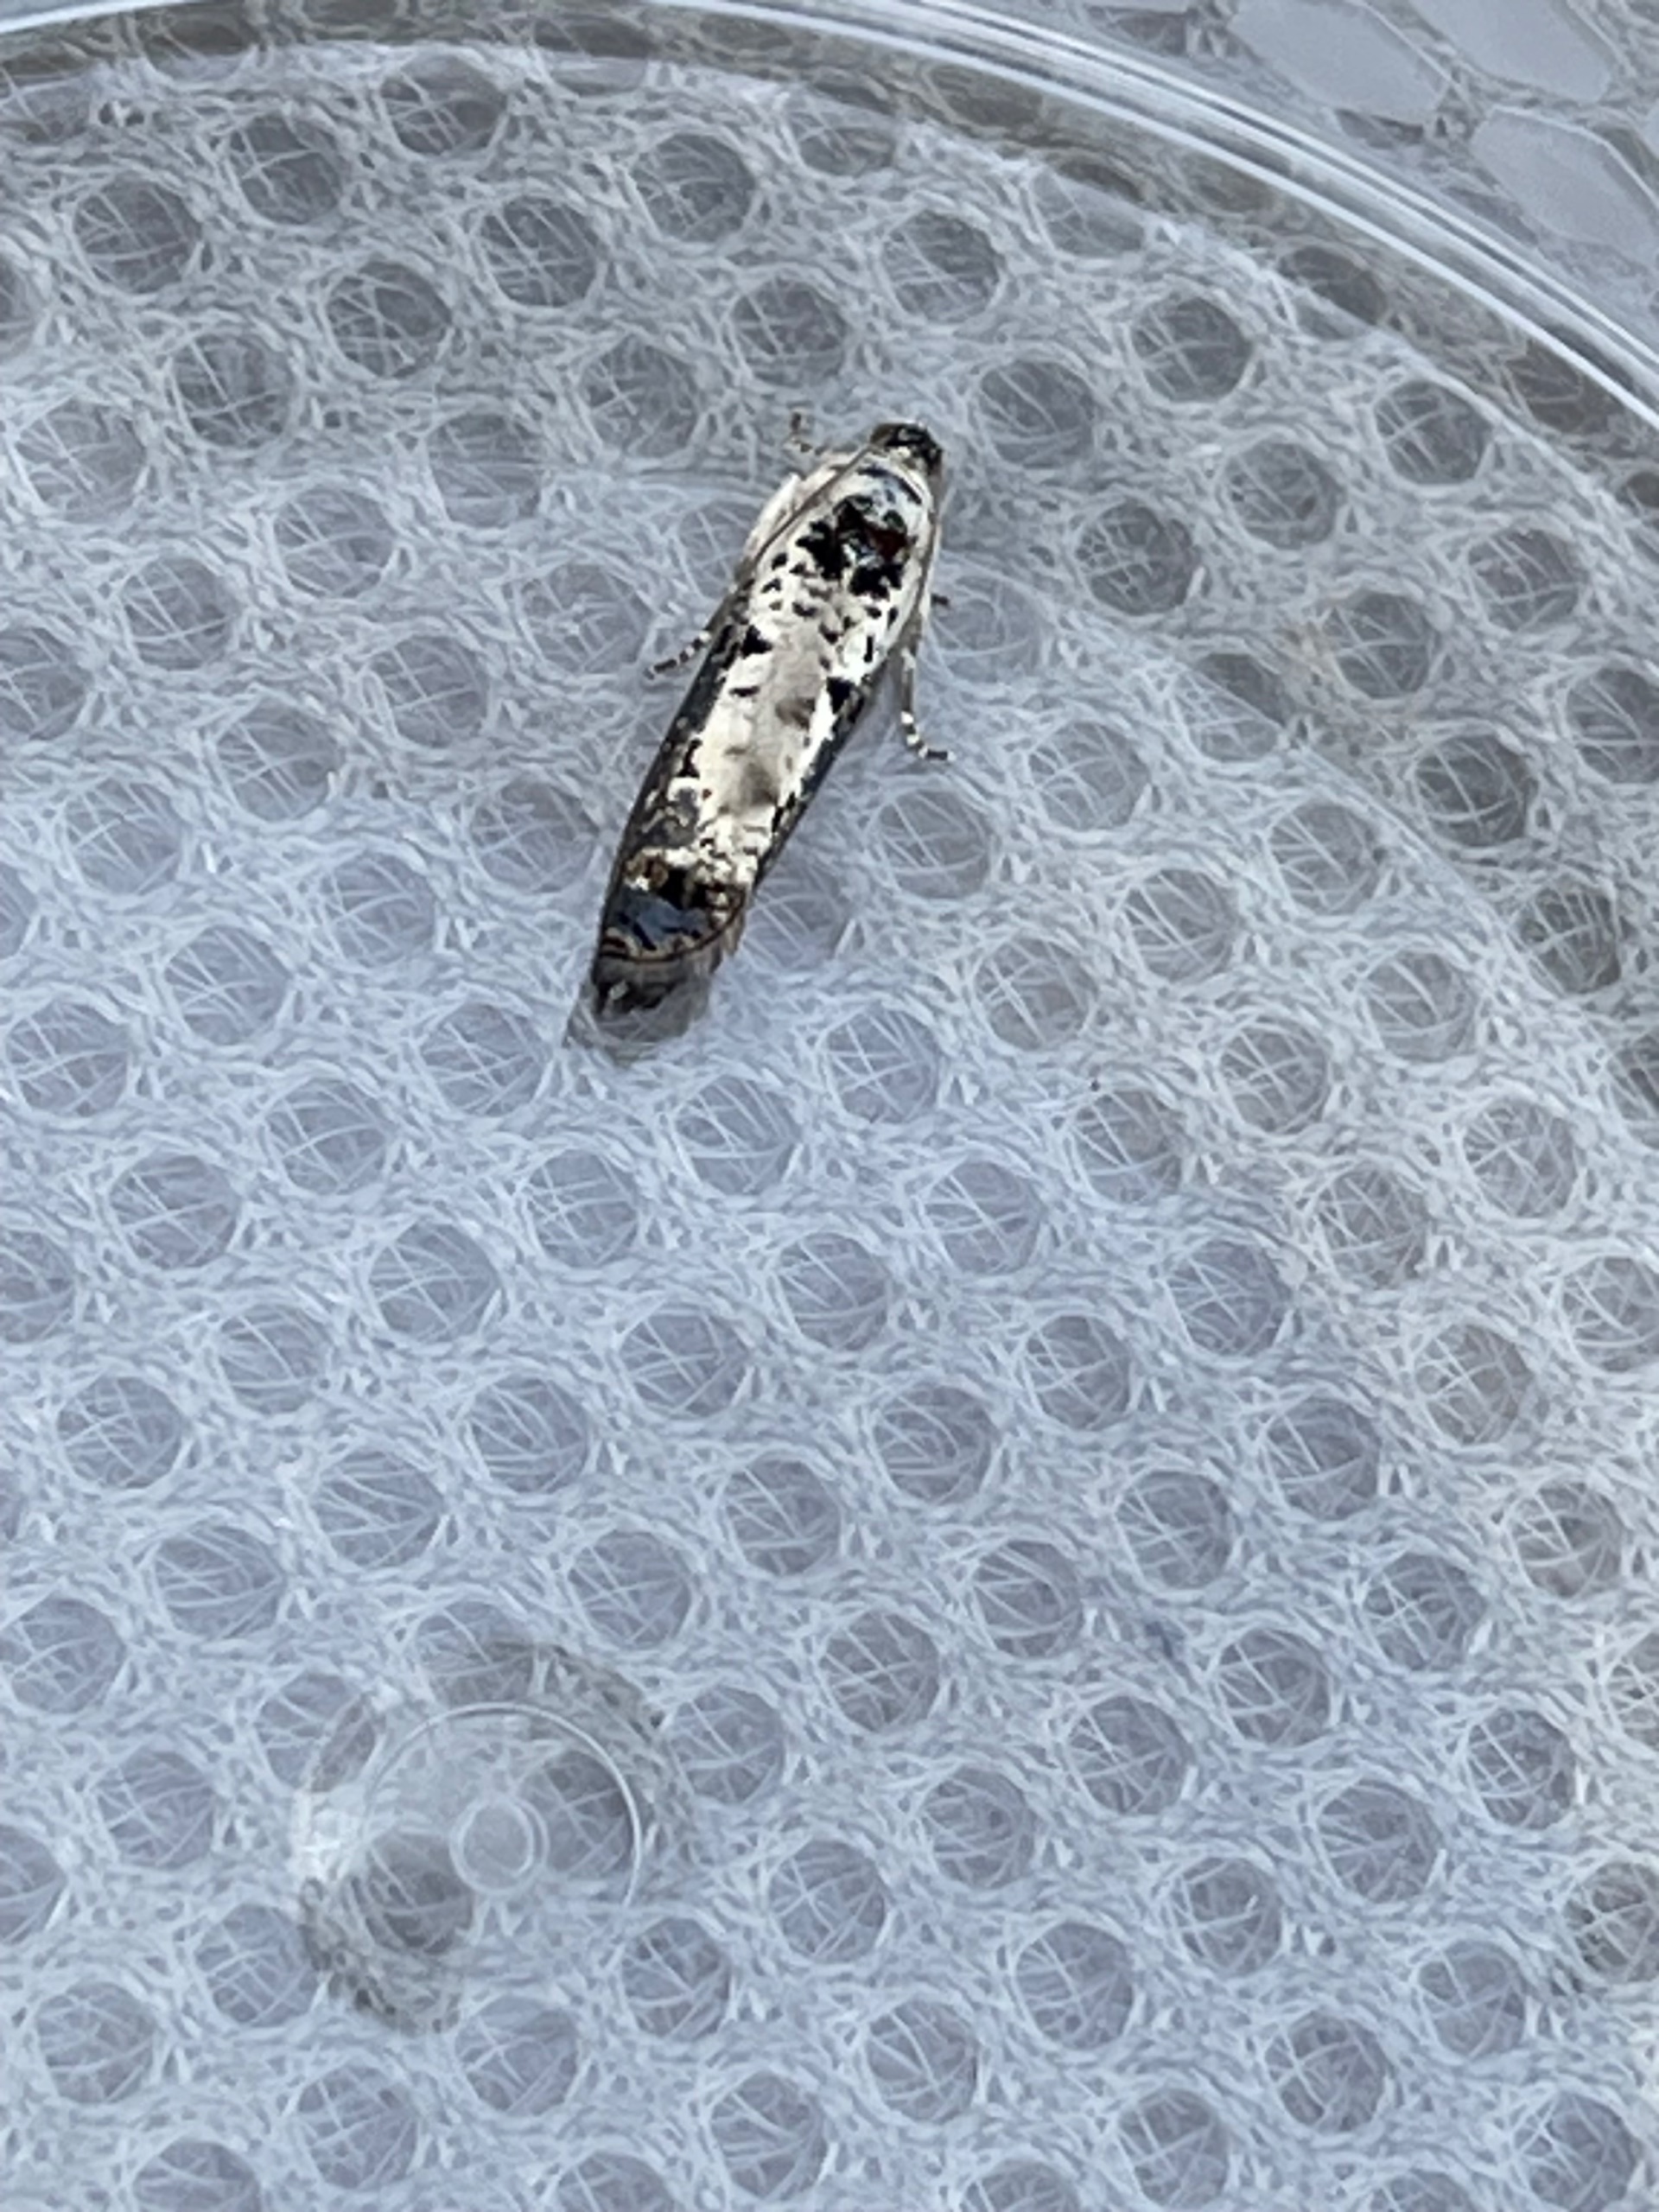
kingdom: Animalia
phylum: Arthropoda
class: Insecta
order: Lepidoptera
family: Tortricidae
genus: Hedya
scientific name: Hedya salicella
